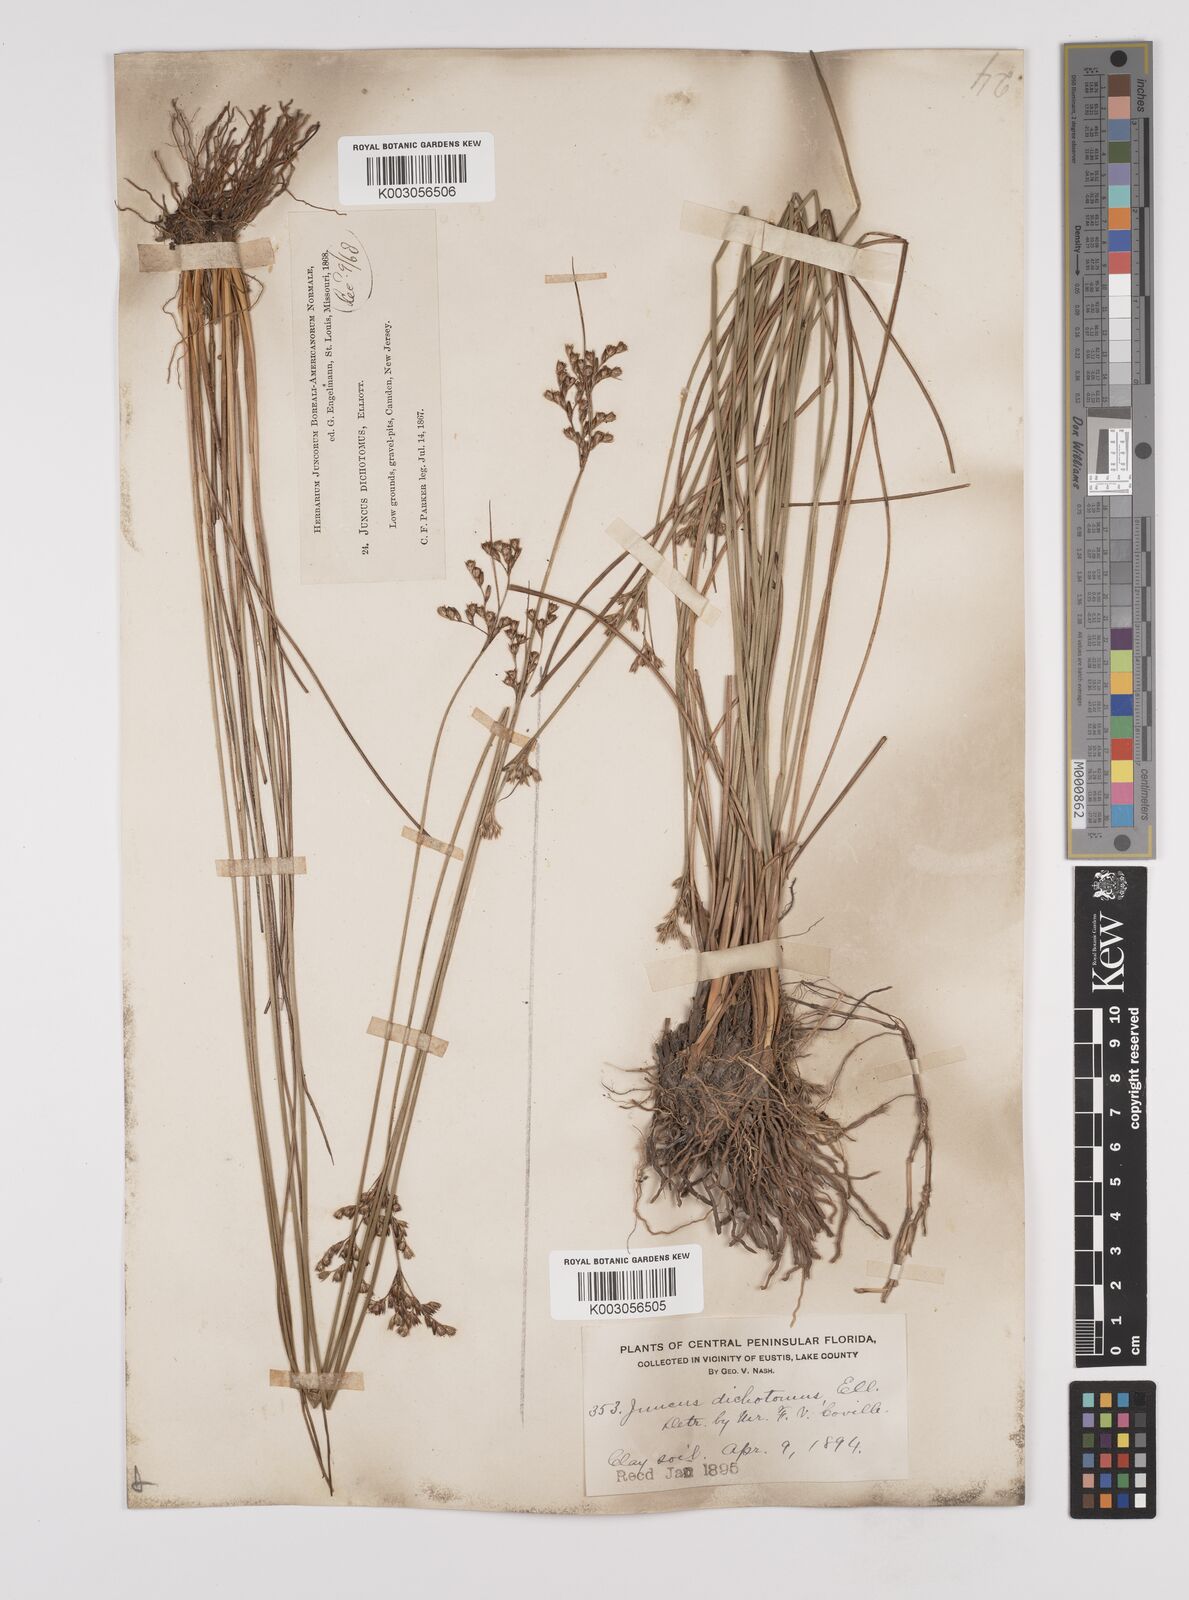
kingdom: Plantae
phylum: Tracheophyta
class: Liliopsida
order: Poales
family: Juncaceae
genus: Juncus
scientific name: Juncus dichotomus
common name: Forked rush
